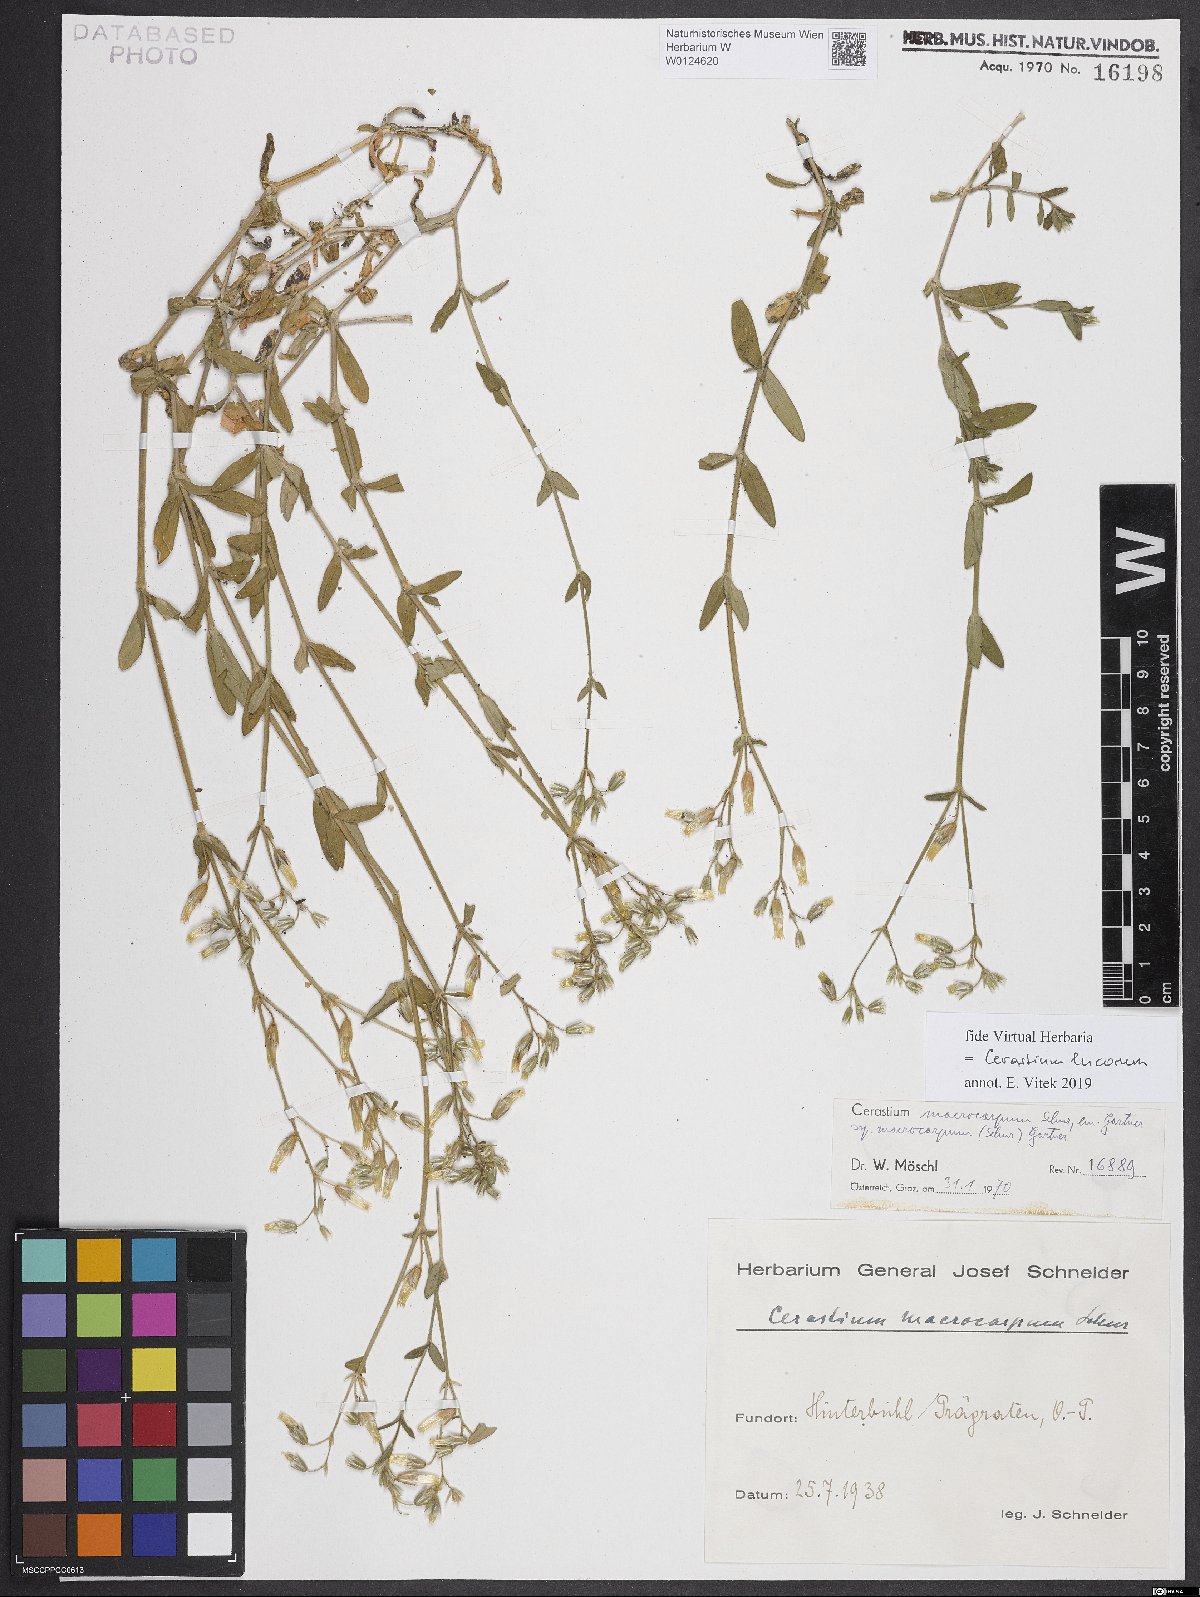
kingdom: Plantae
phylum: Tracheophyta
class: Magnoliopsida
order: Caryophyllales
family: Caryophyllaceae
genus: Cerastium
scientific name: Cerastium lucorum
